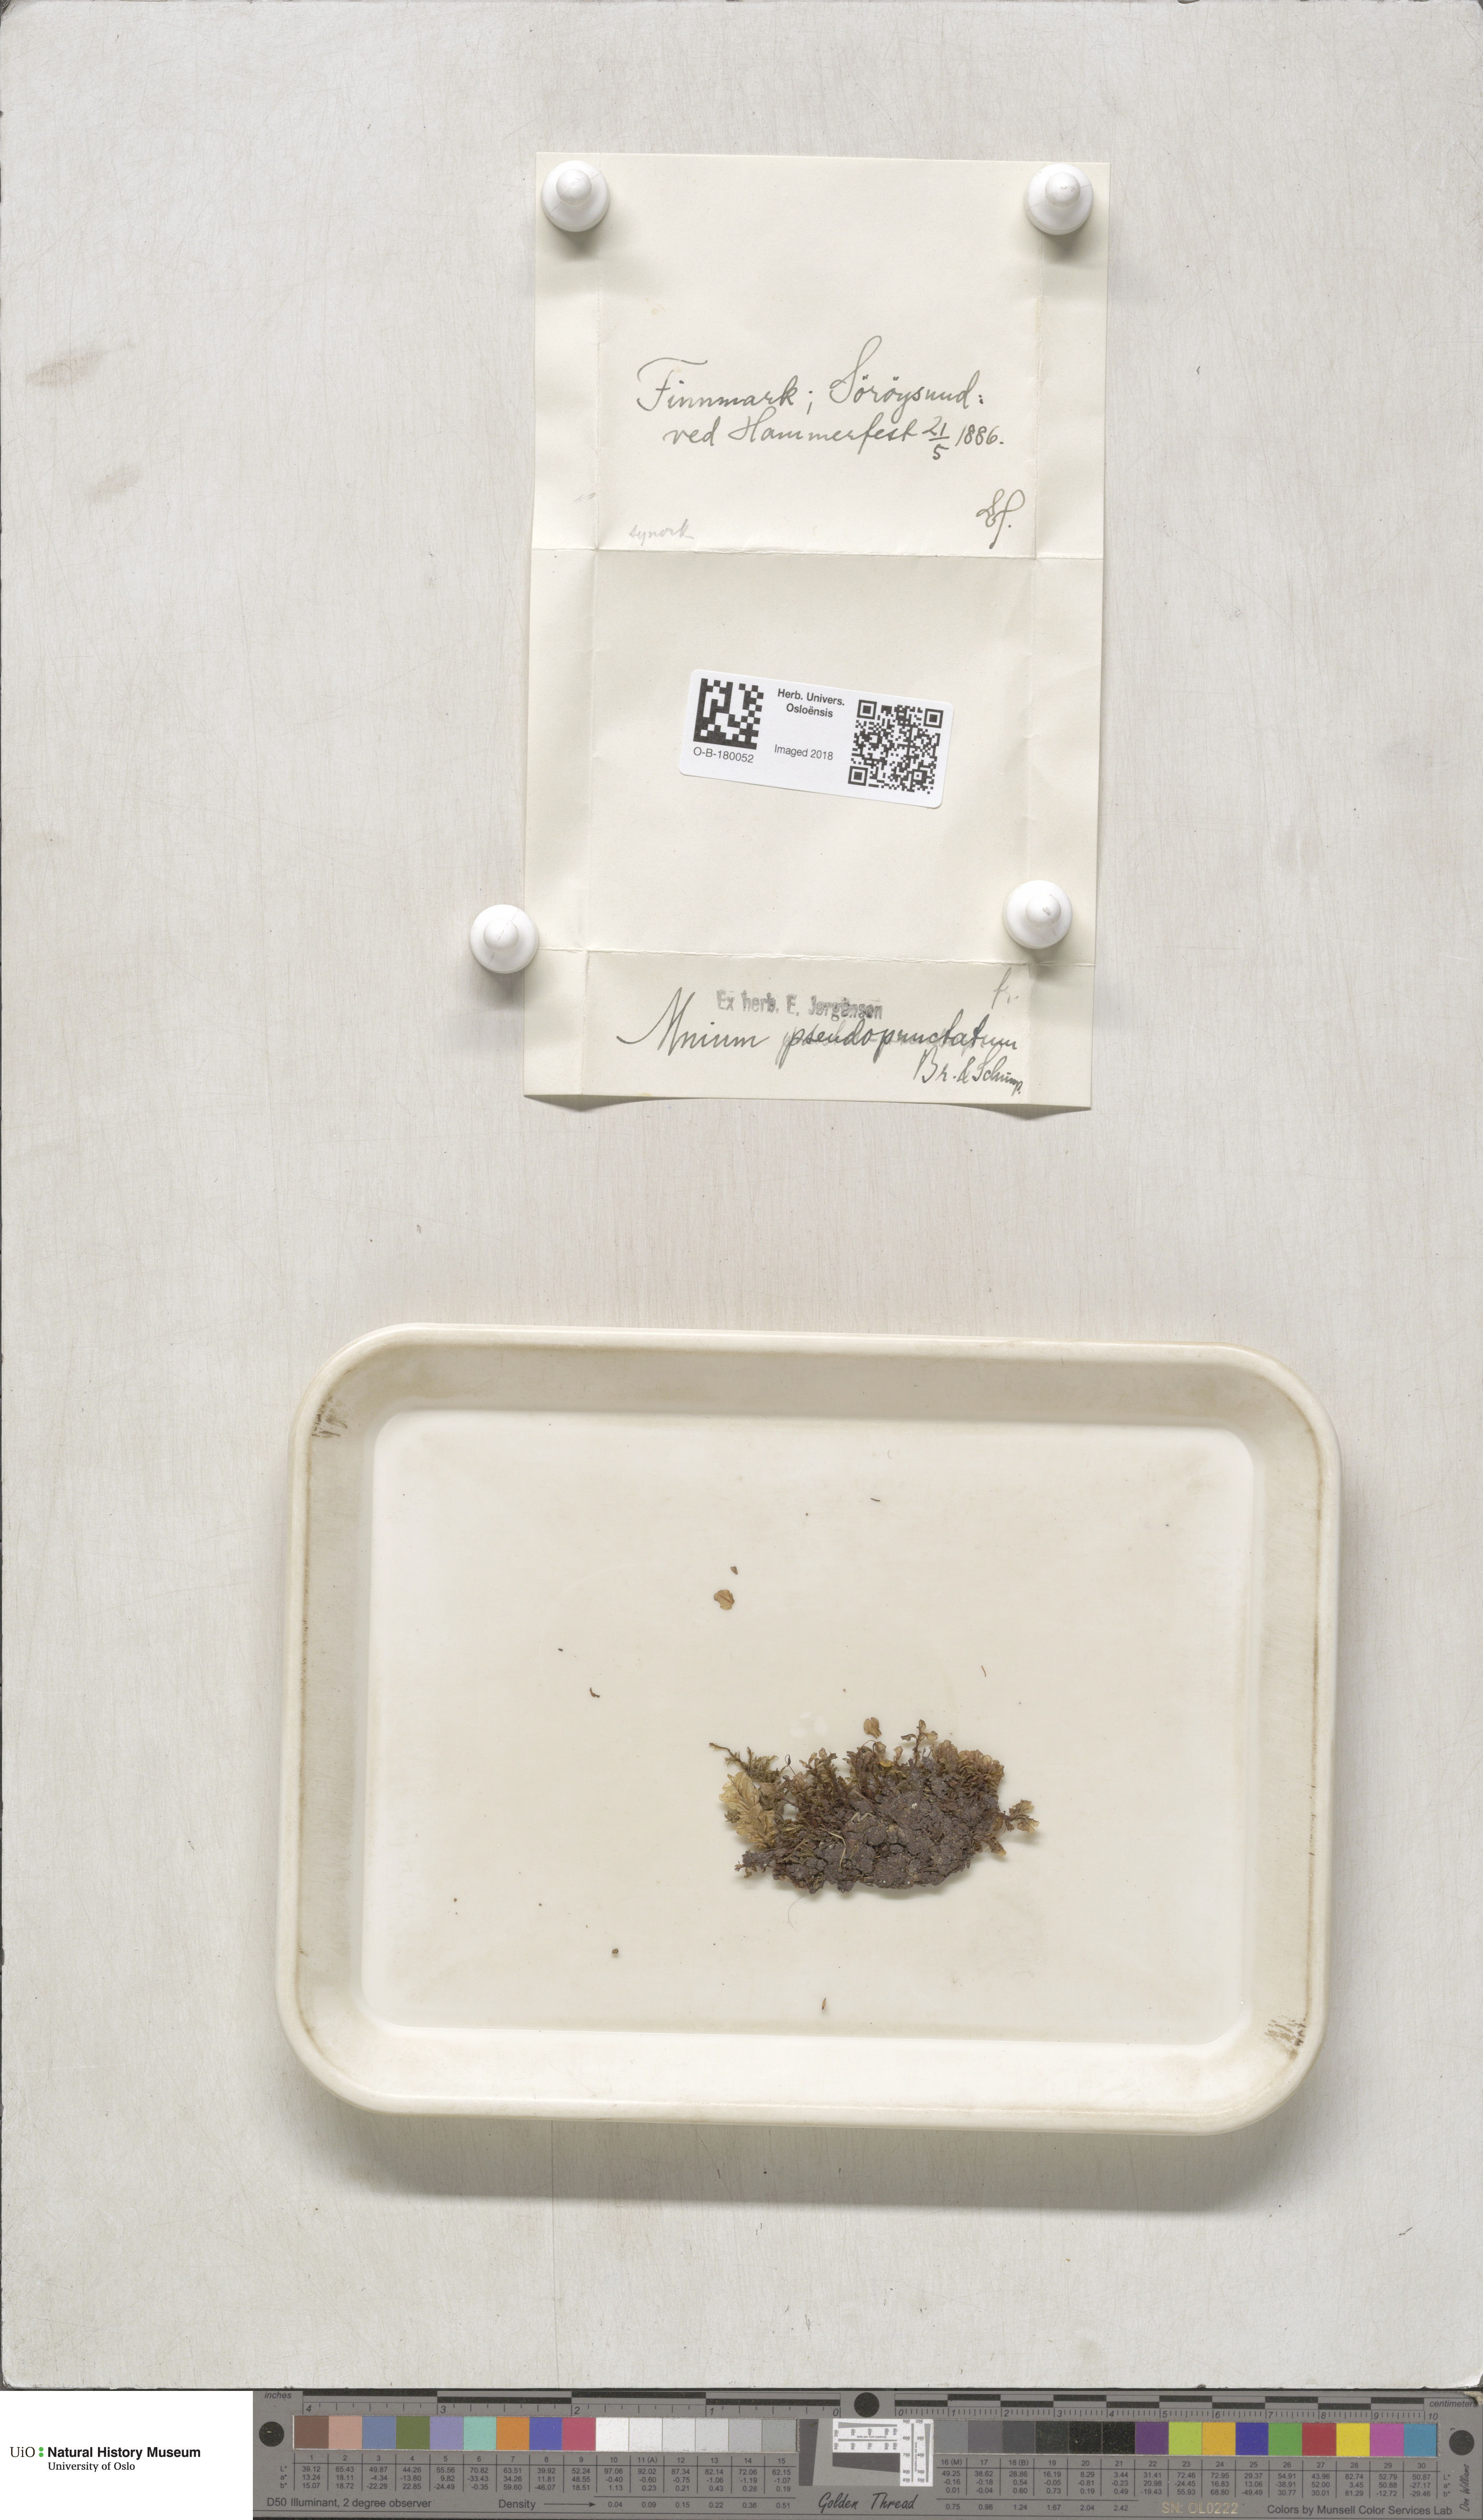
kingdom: Plantae
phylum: Bryophyta
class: Bryopsida
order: Bryales
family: Mniaceae
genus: Rhizomnium
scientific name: Rhizomnium pseudopunctatum
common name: Felted leafy moss
